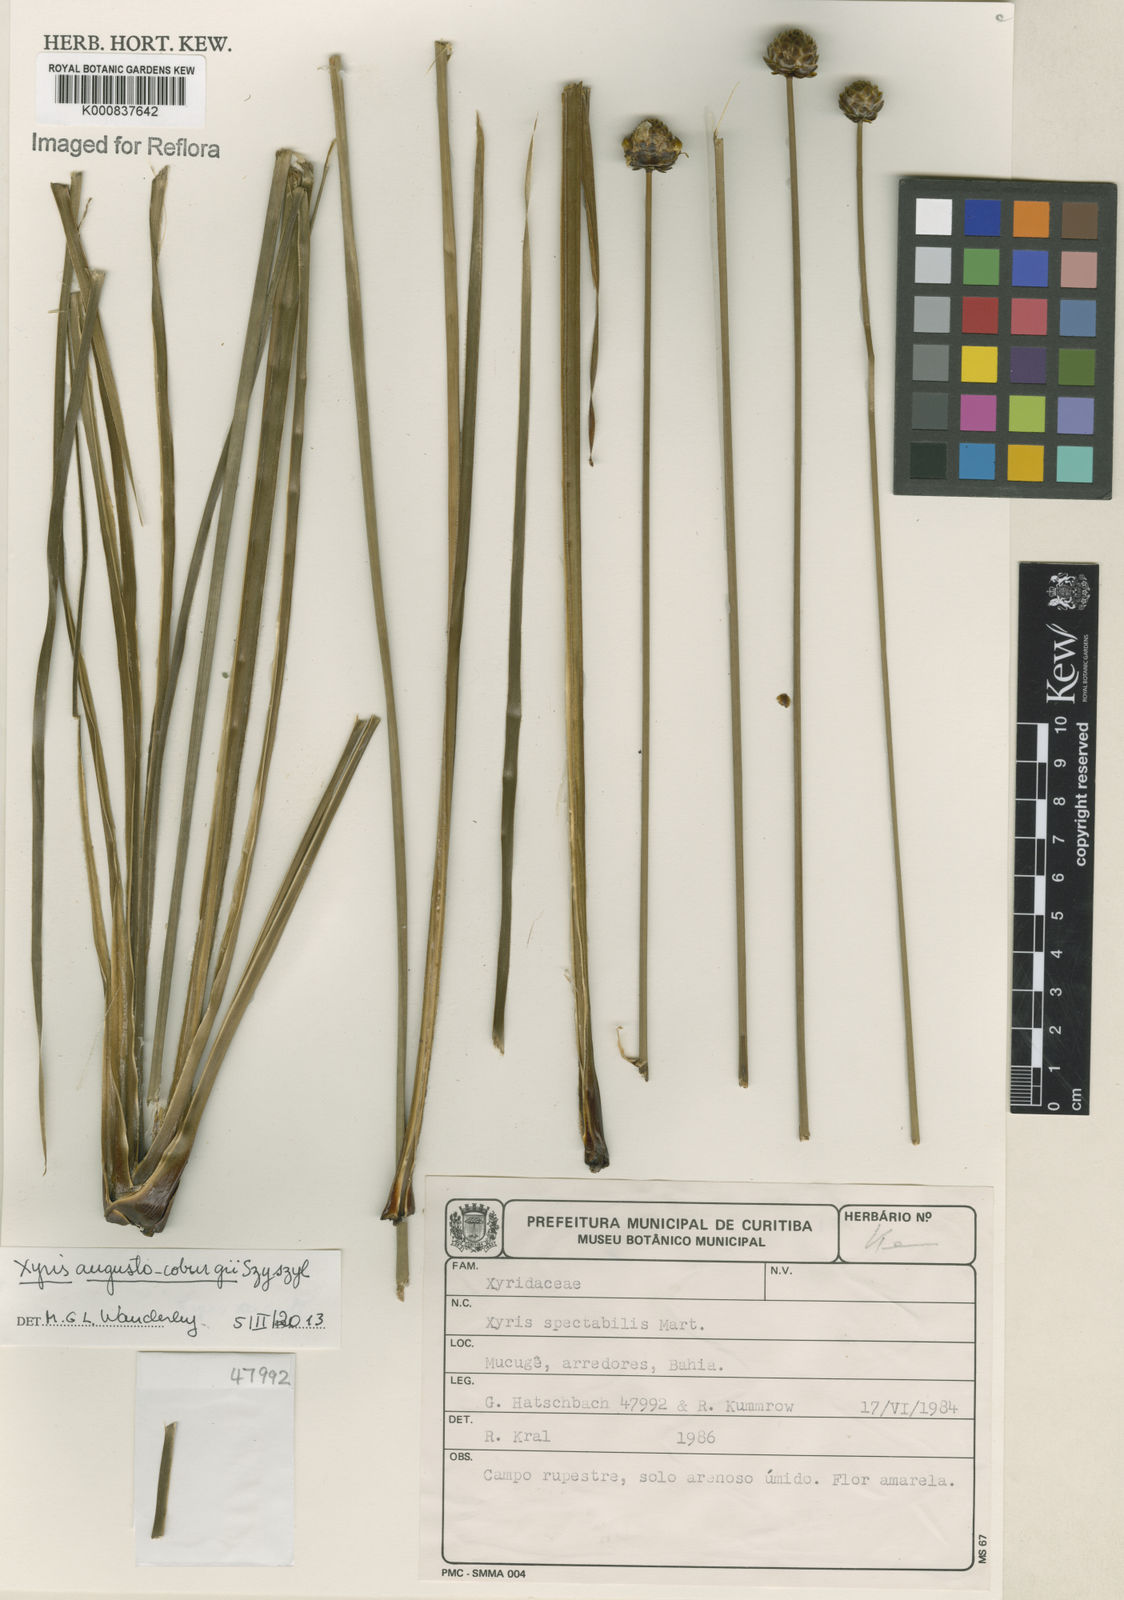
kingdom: Plantae
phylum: Tracheophyta
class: Liliopsida
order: Poales
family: Xyridaceae
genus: Xyris
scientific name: Xyris augusto-coburgii
